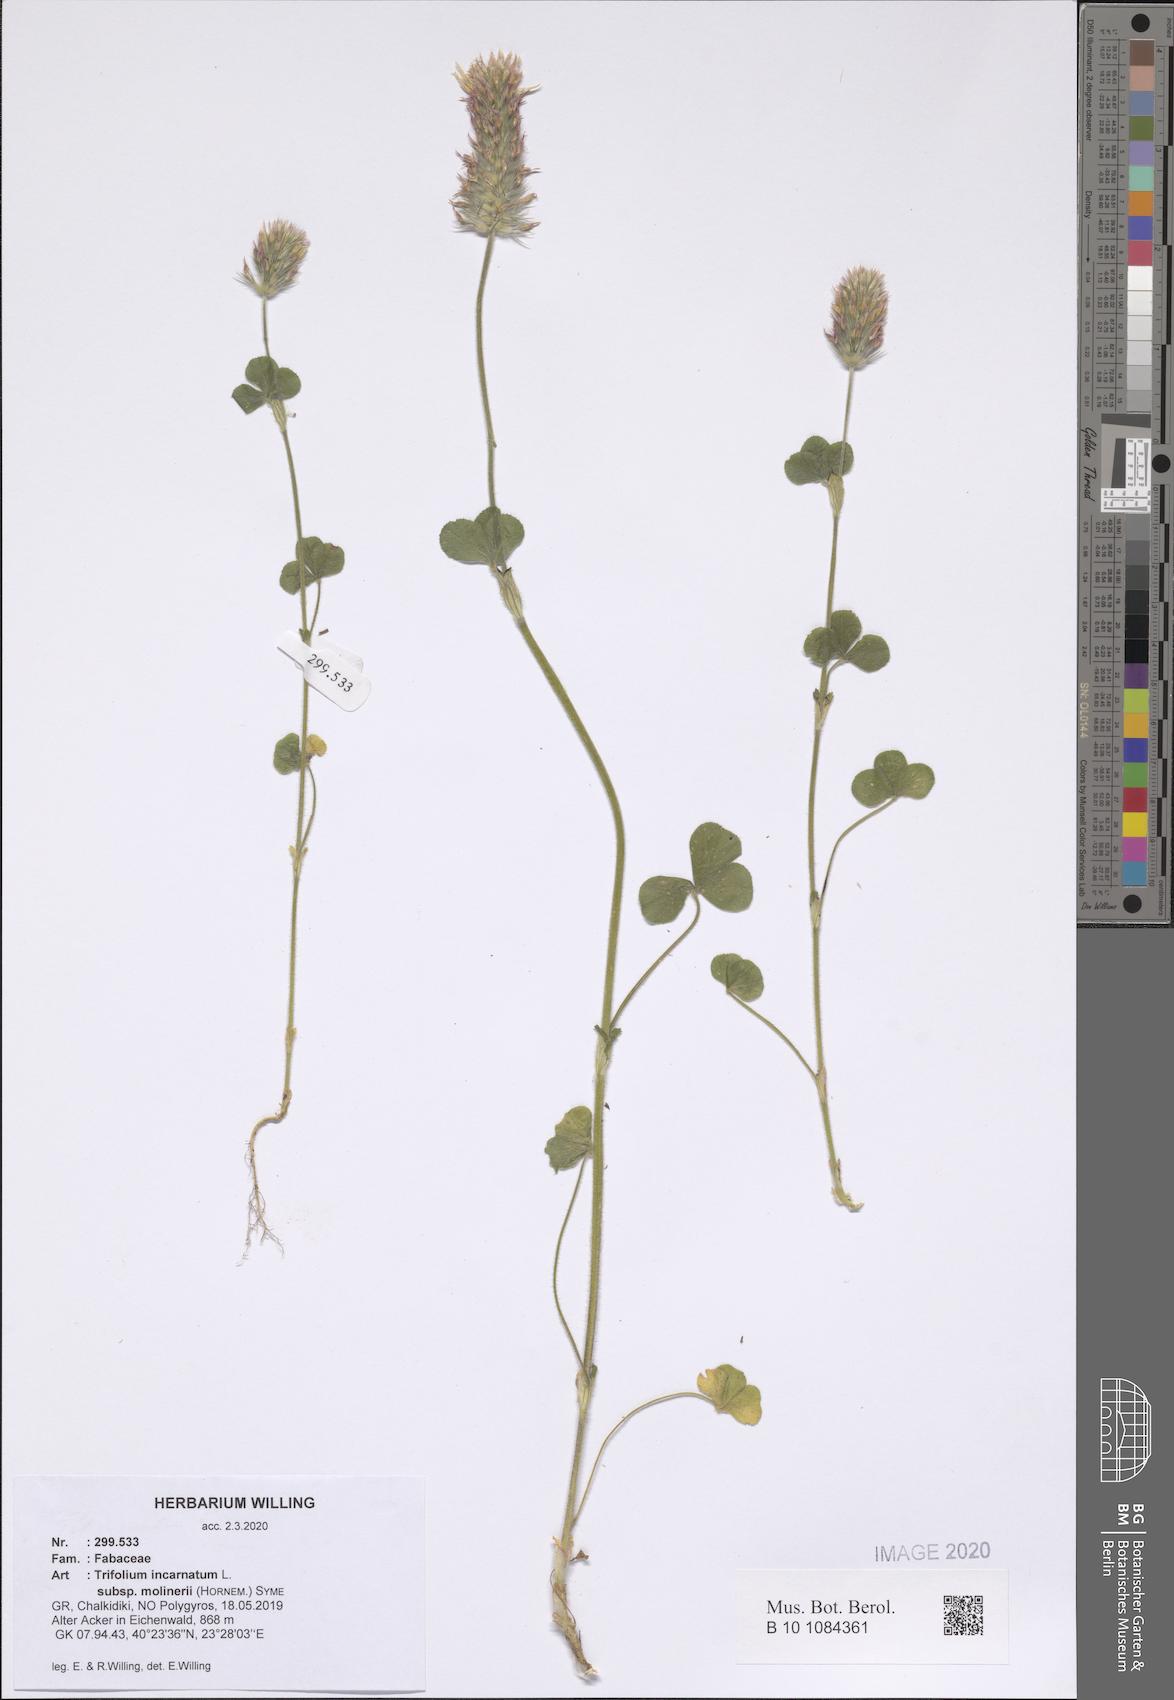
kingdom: Plantae
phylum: Tracheophyta
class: Magnoliopsida
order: Fabales
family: Fabaceae
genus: Trifolium
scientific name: Trifolium incarnatum
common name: Crimson clover
